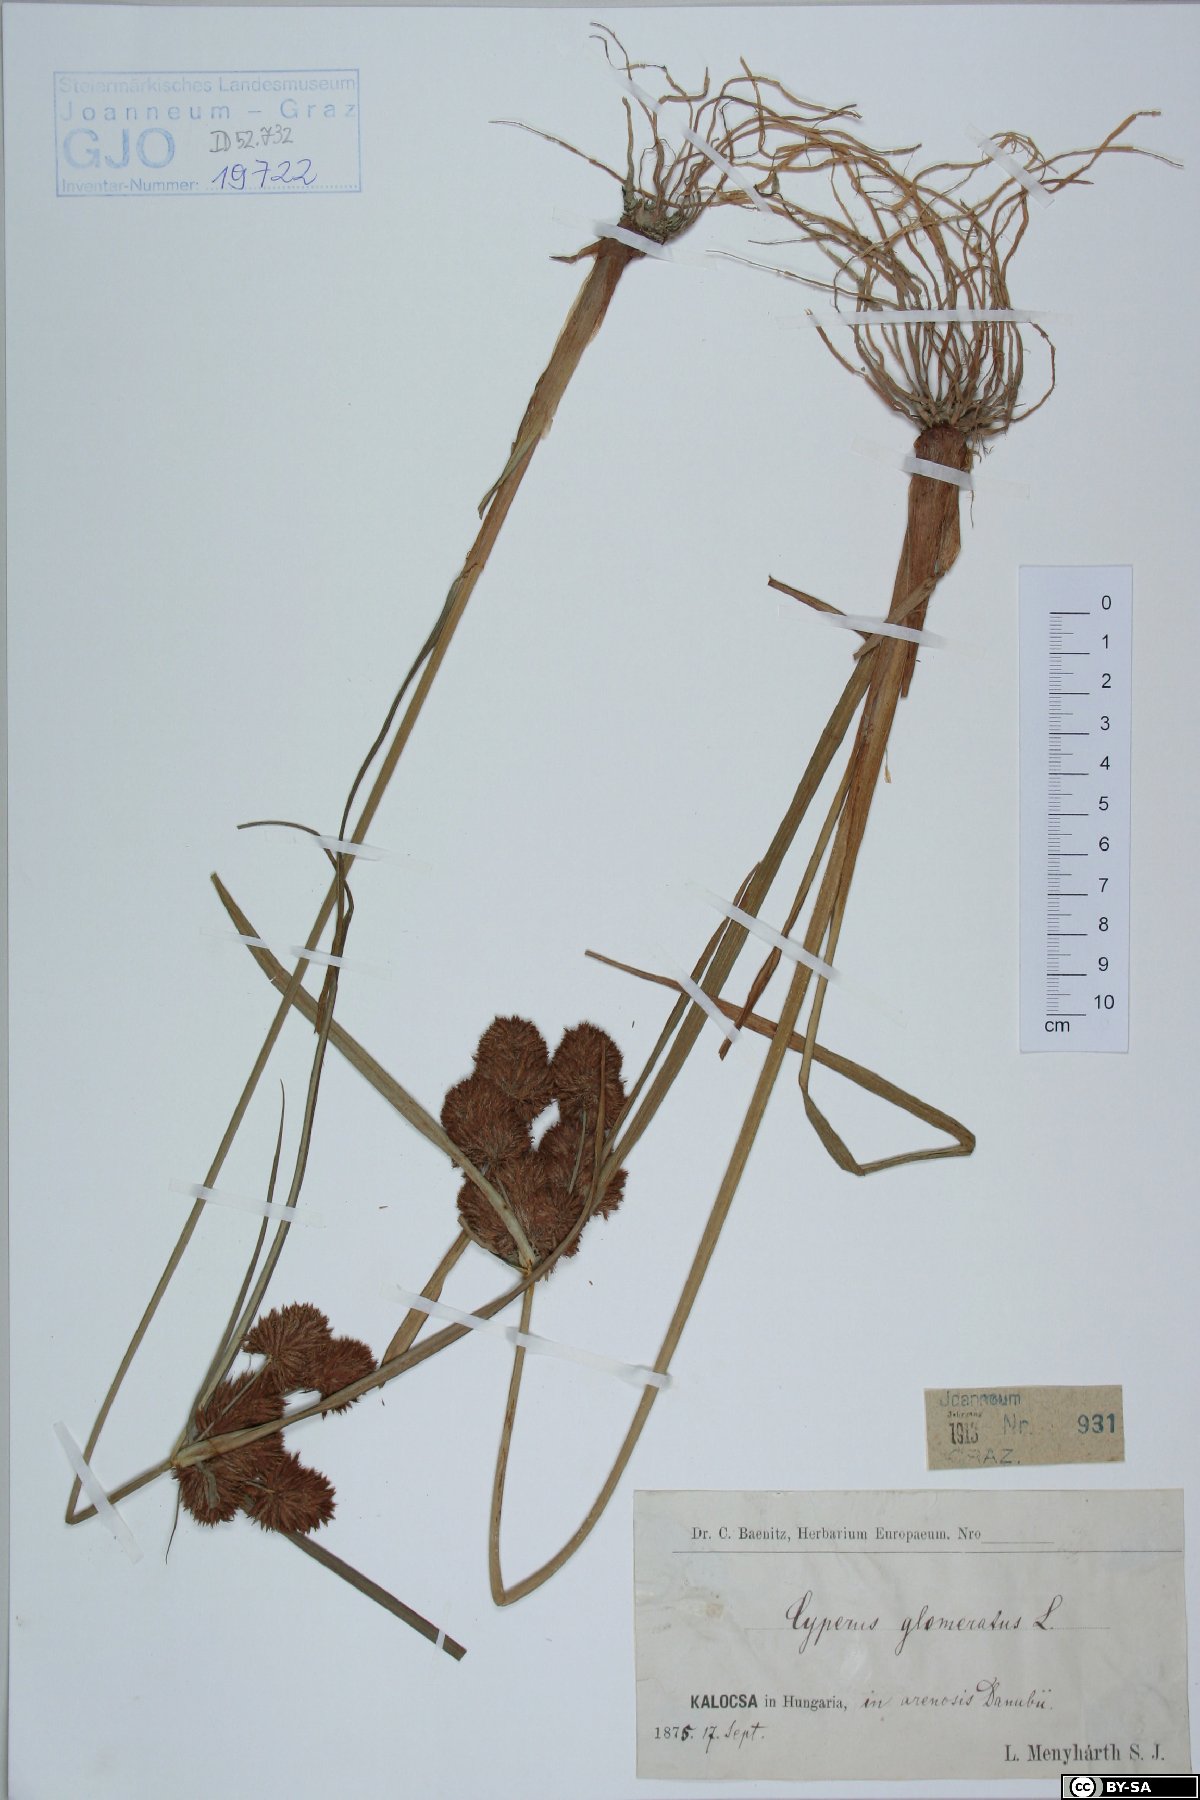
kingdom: Plantae
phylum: Tracheophyta
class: Liliopsida
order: Poales
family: Cyperaceae
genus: Cyperus
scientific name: Cyperus glomeratus
